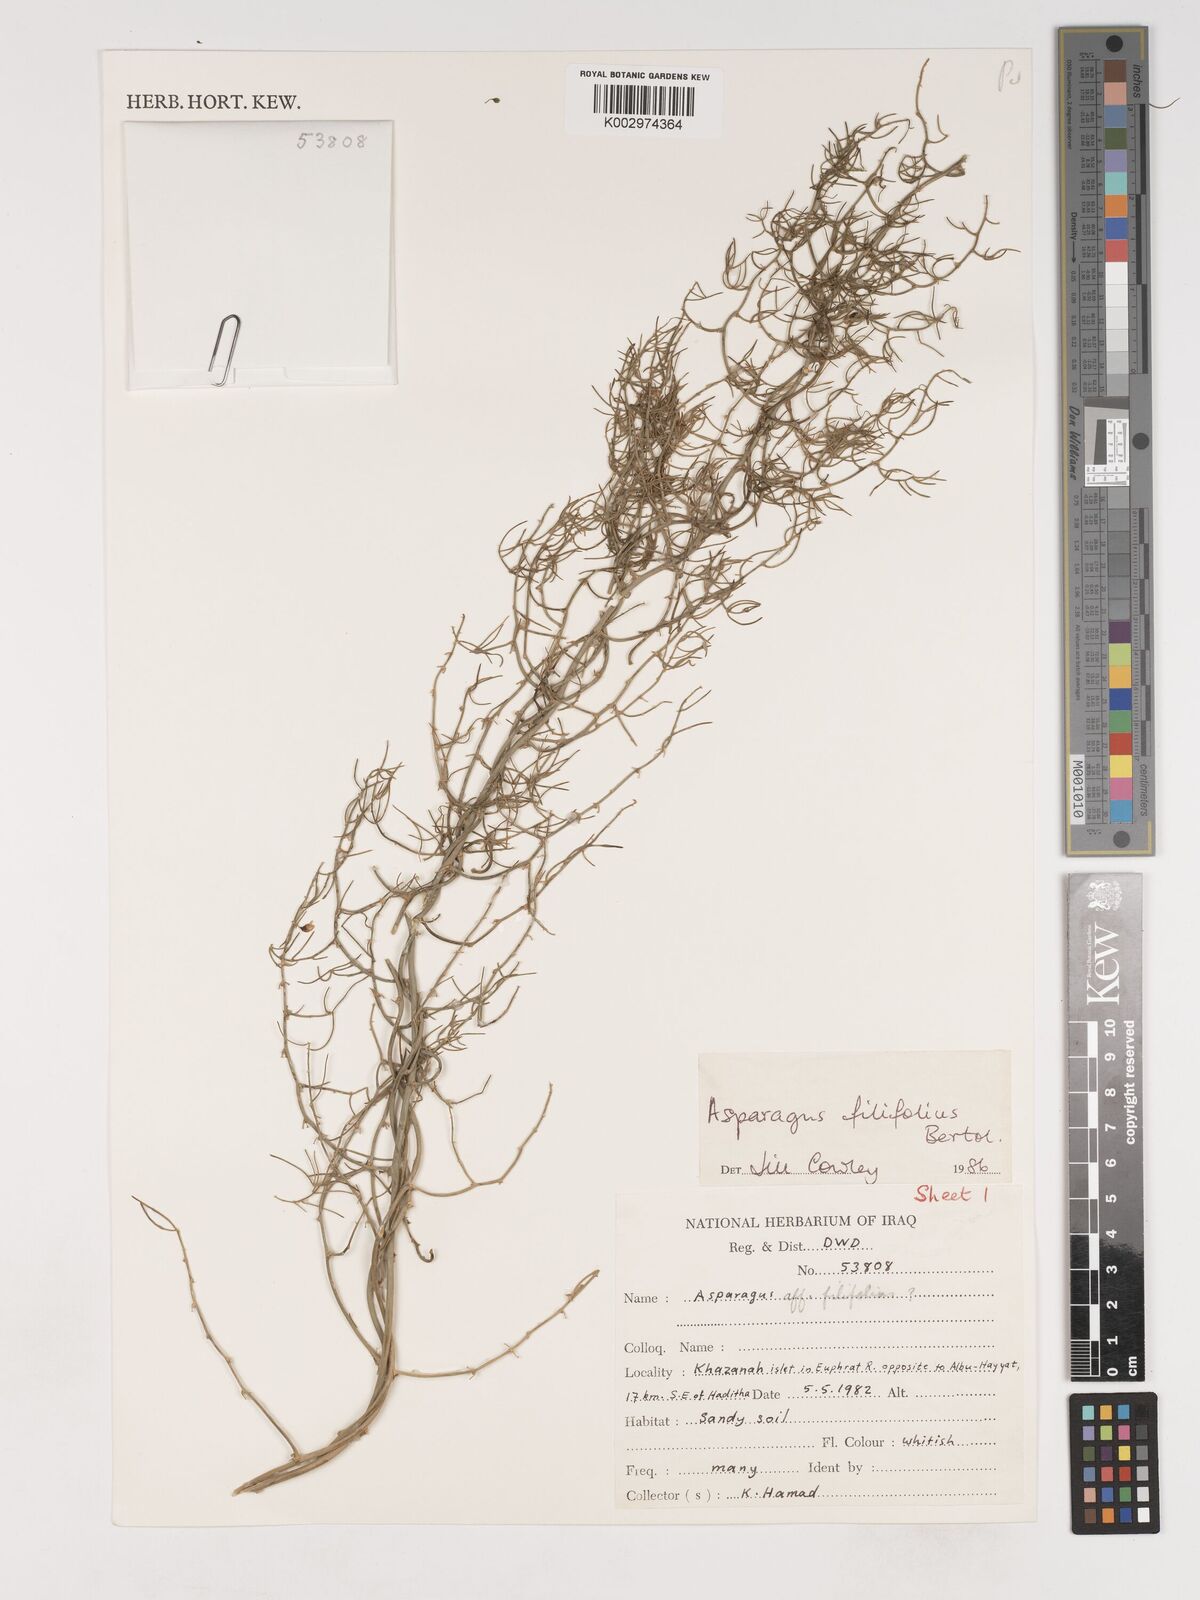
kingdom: Plantae
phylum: Tracheophyta
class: Liliopsida
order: Asparagales
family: Asparagaceae
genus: Asparagus
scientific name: Asparagus filifolius
